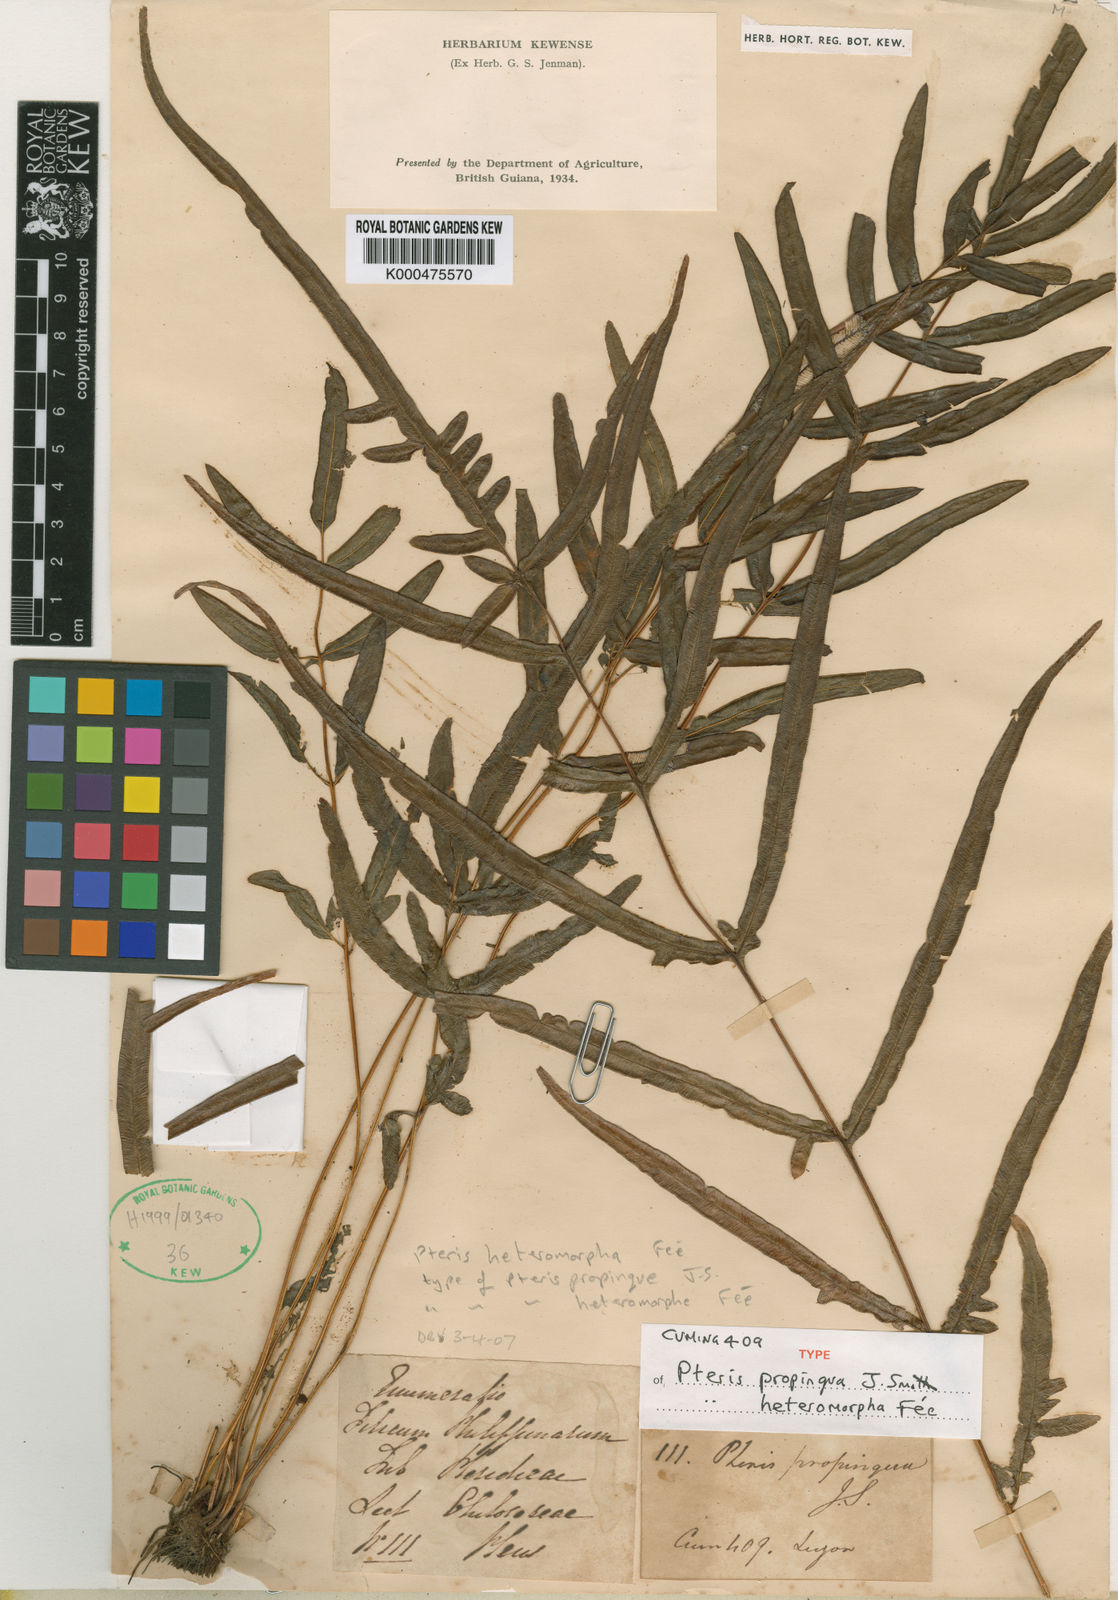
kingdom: Plantae
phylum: Tracheophyta
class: Polypodiopsida
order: Polypodiales
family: Pteridaceae
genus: Pteris
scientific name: Pteris
